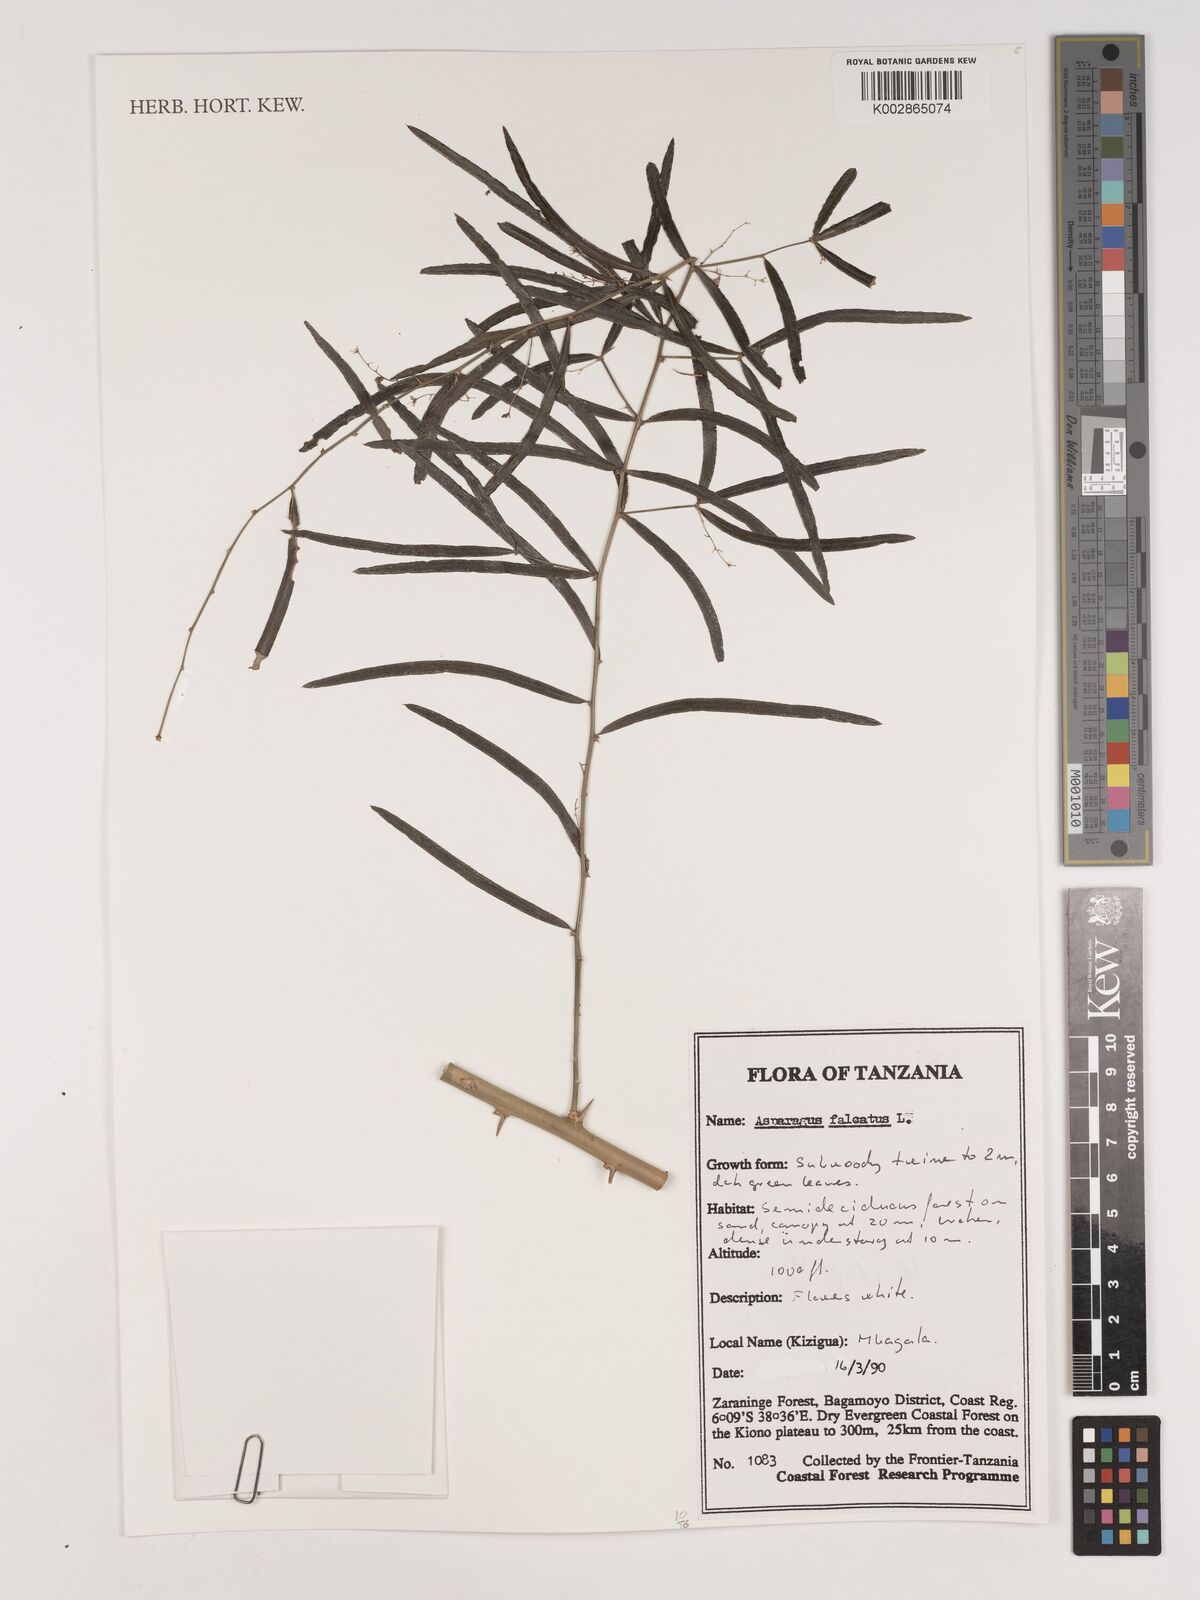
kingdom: Plantae
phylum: Tracheophyta
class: Liliopsida
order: Asparagales
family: Asparagaceae
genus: Asparagus
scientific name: Asparagus falcatus
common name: Asparagus
